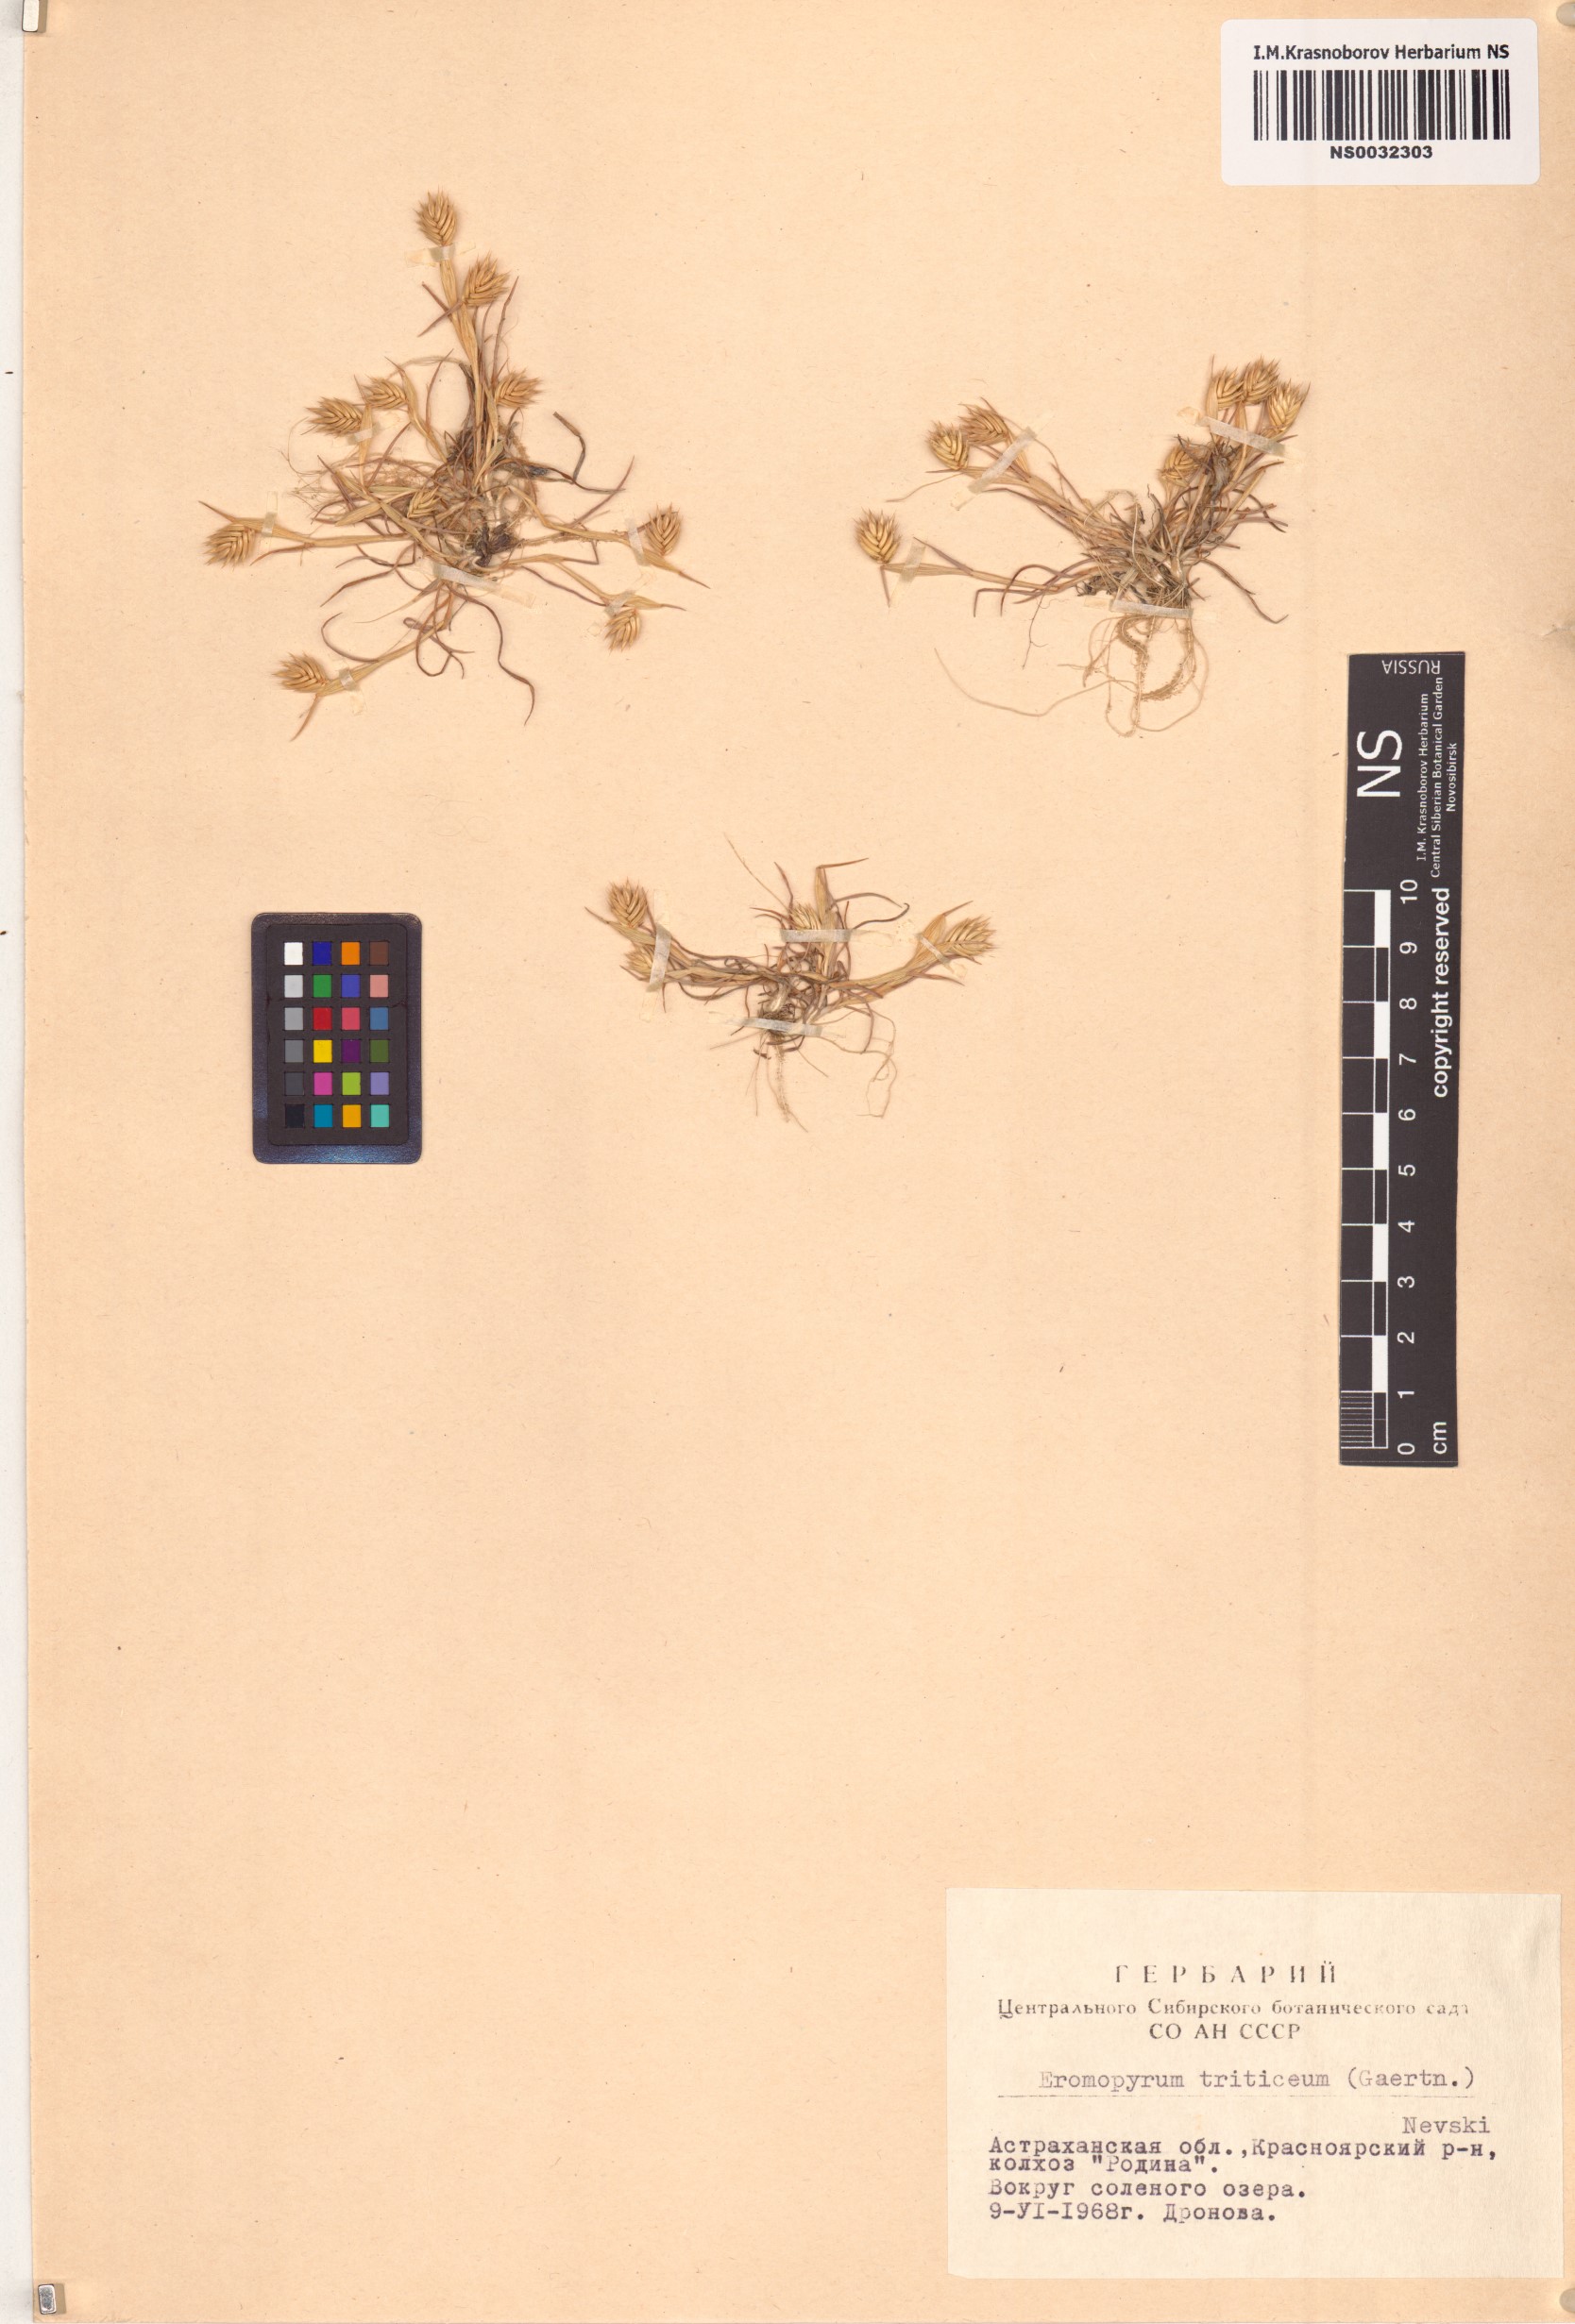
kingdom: Plantae
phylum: Tracheophyta
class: Liliopsida
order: Poales
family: Poaceae
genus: Eremopyrum
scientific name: Eremopyrum triticeum
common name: Annual wheatgrass
